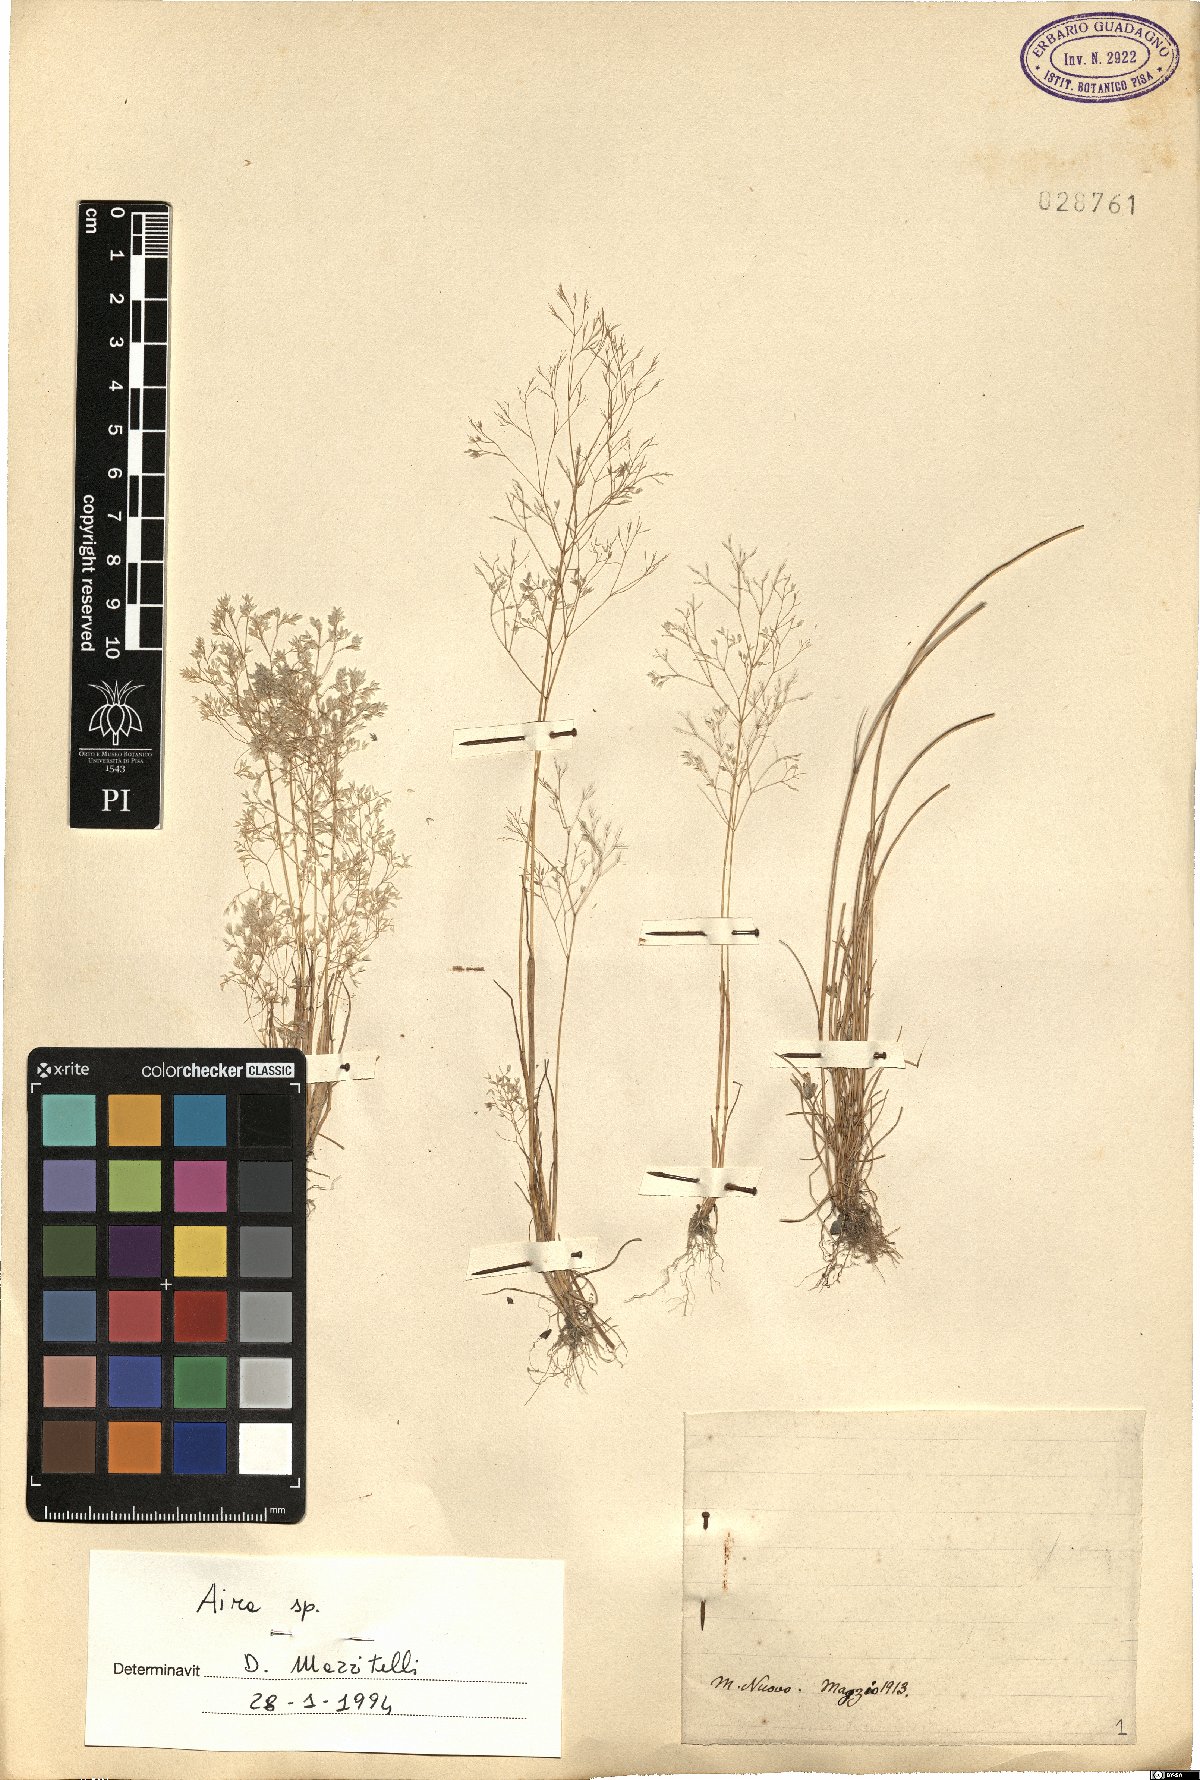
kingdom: Plantae
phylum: Tracheophyta
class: Liliopsida
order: Poales
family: Poaceae
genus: Aira
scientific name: Aira
